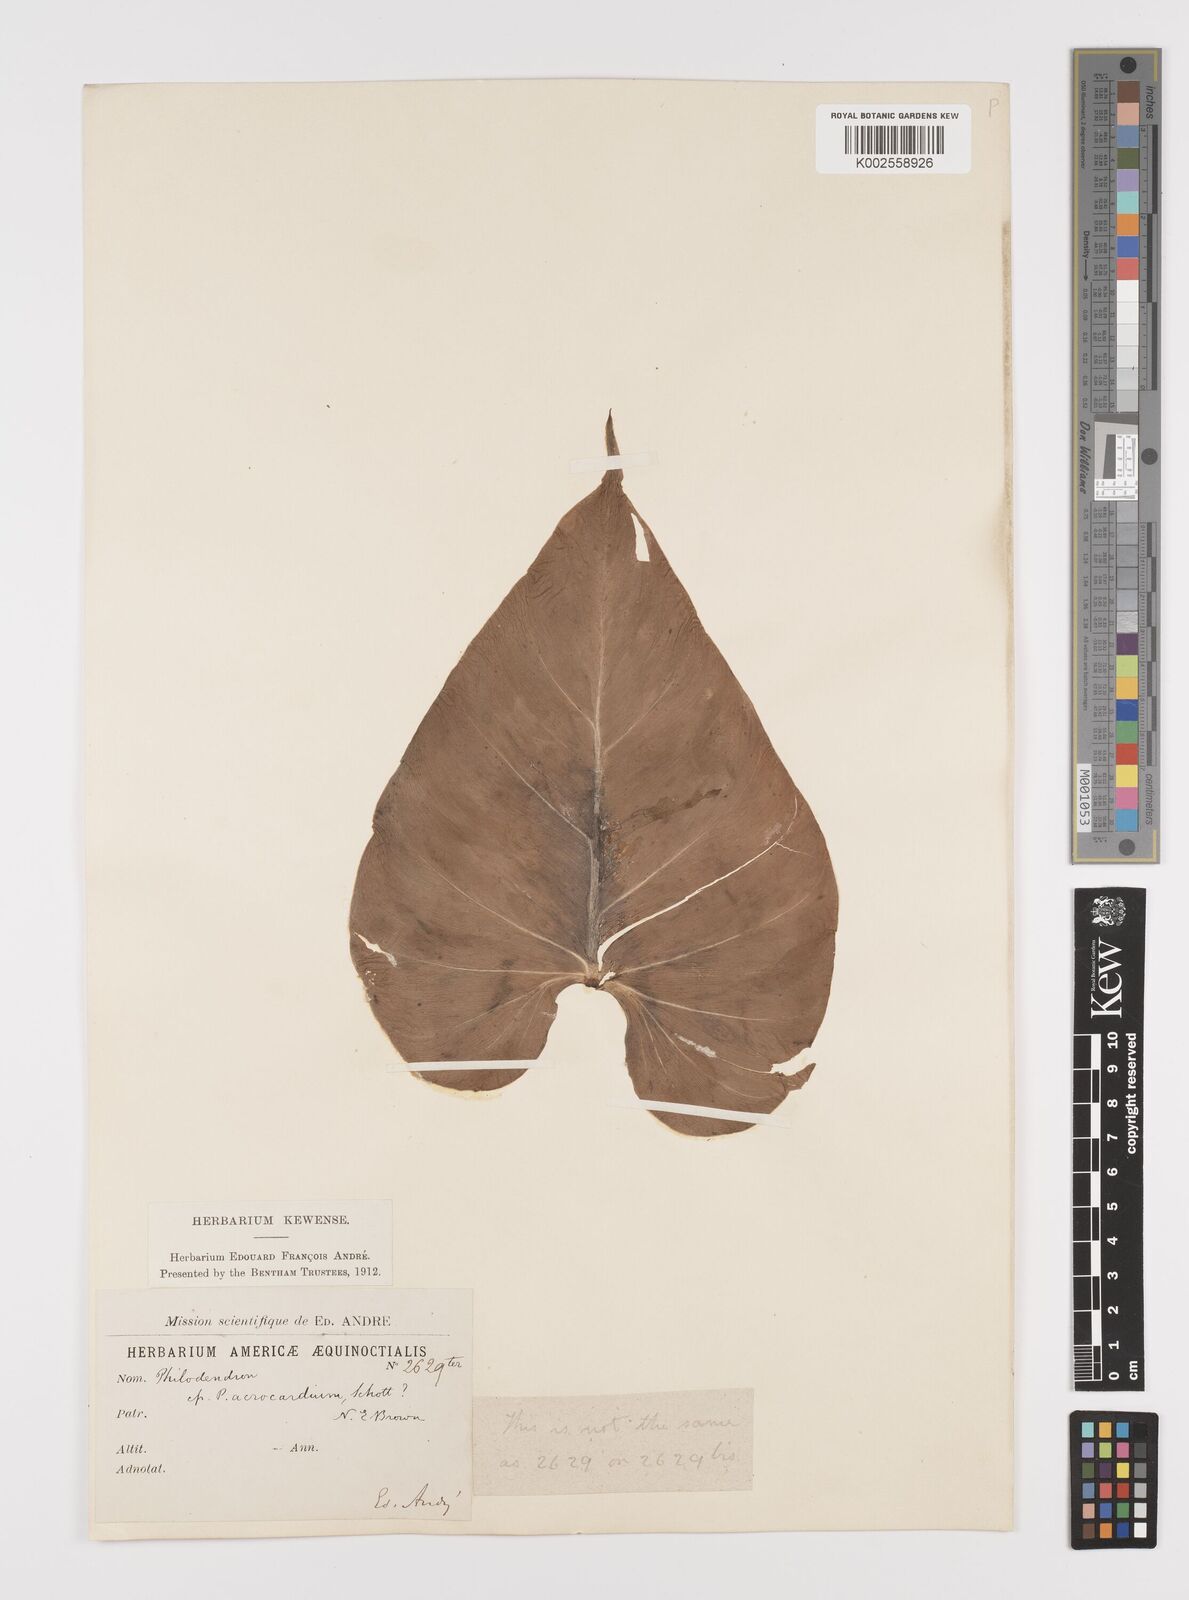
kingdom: Plantae
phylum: Tracheophyta
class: Liliopsida
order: Alismatales
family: Araceae
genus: Philodendron
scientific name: Philodendron hederaceum
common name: Vilevine
